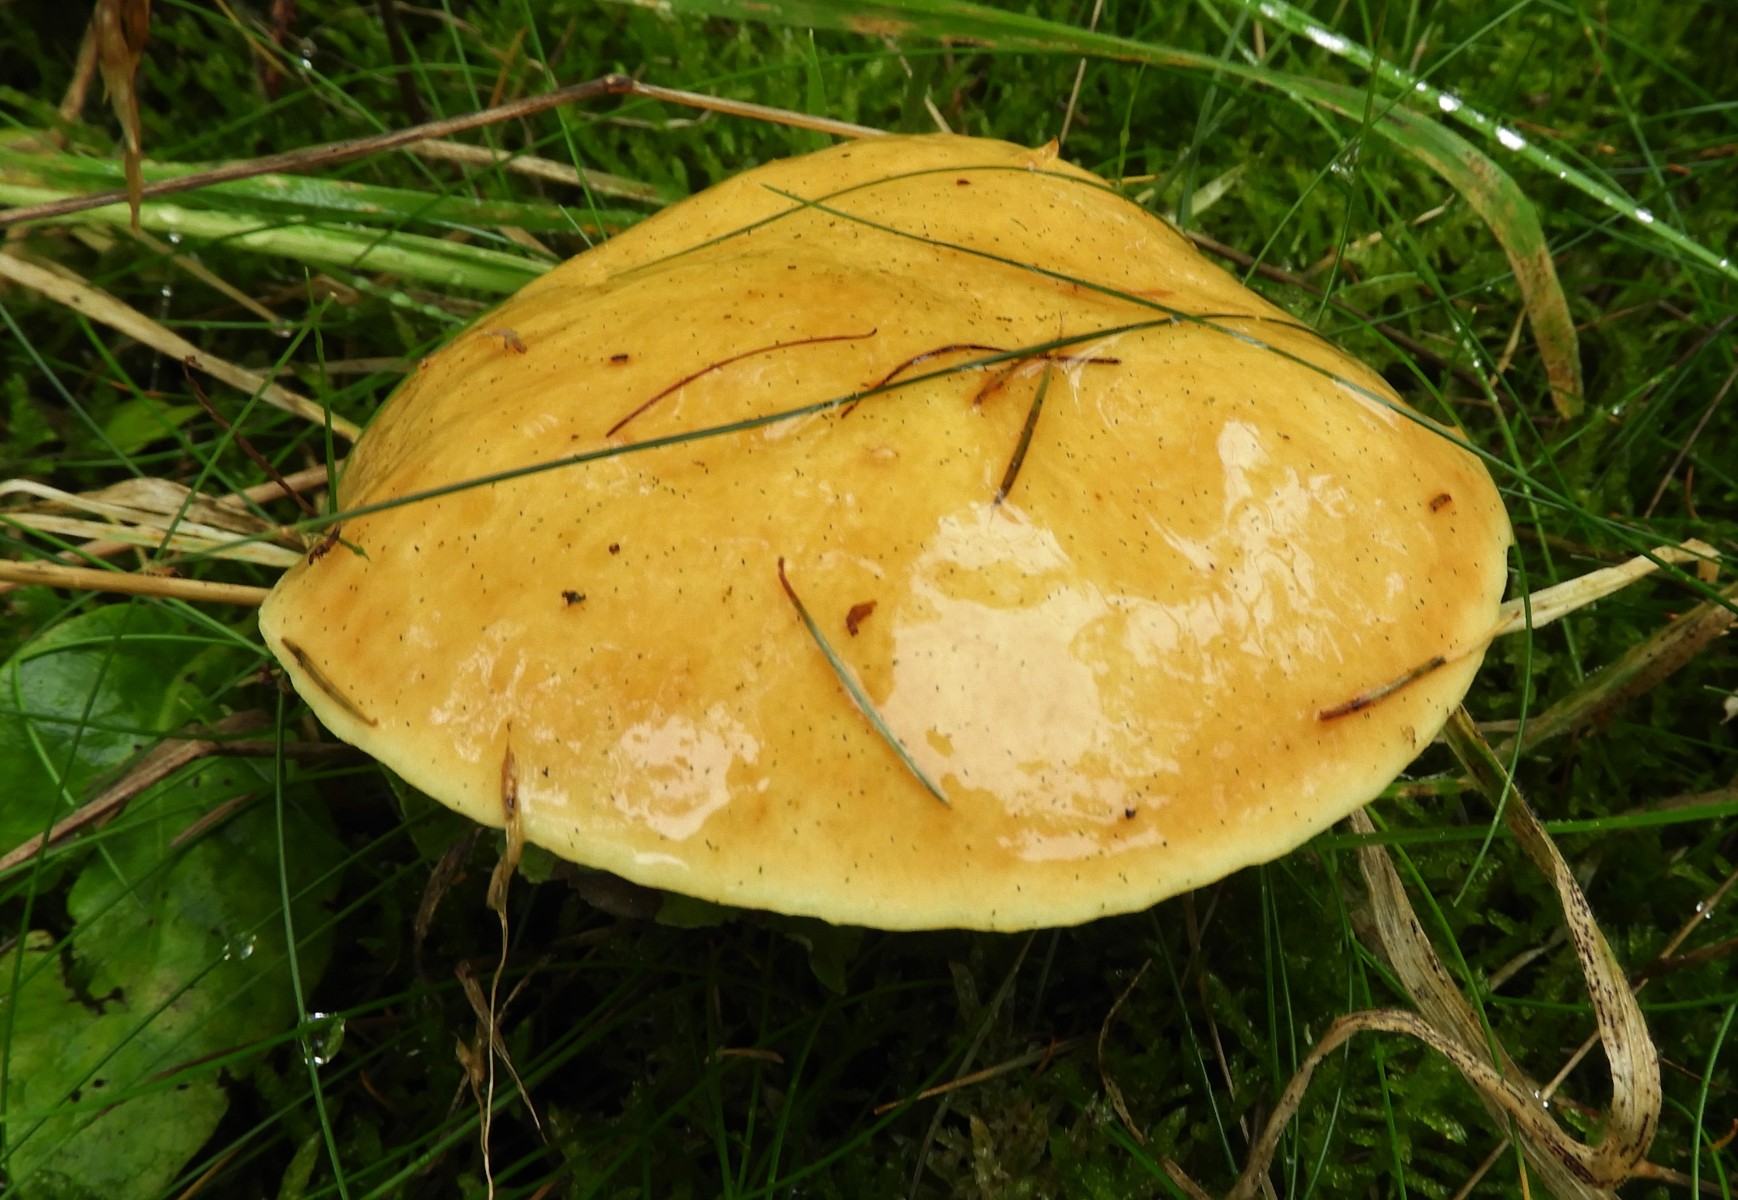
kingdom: Fungi
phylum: Basidiomycota
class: Agaricomycetes
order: Boletales
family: Suillaceae
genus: Suillus
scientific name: Suillus grevillei
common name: lærke-slimrørhat
